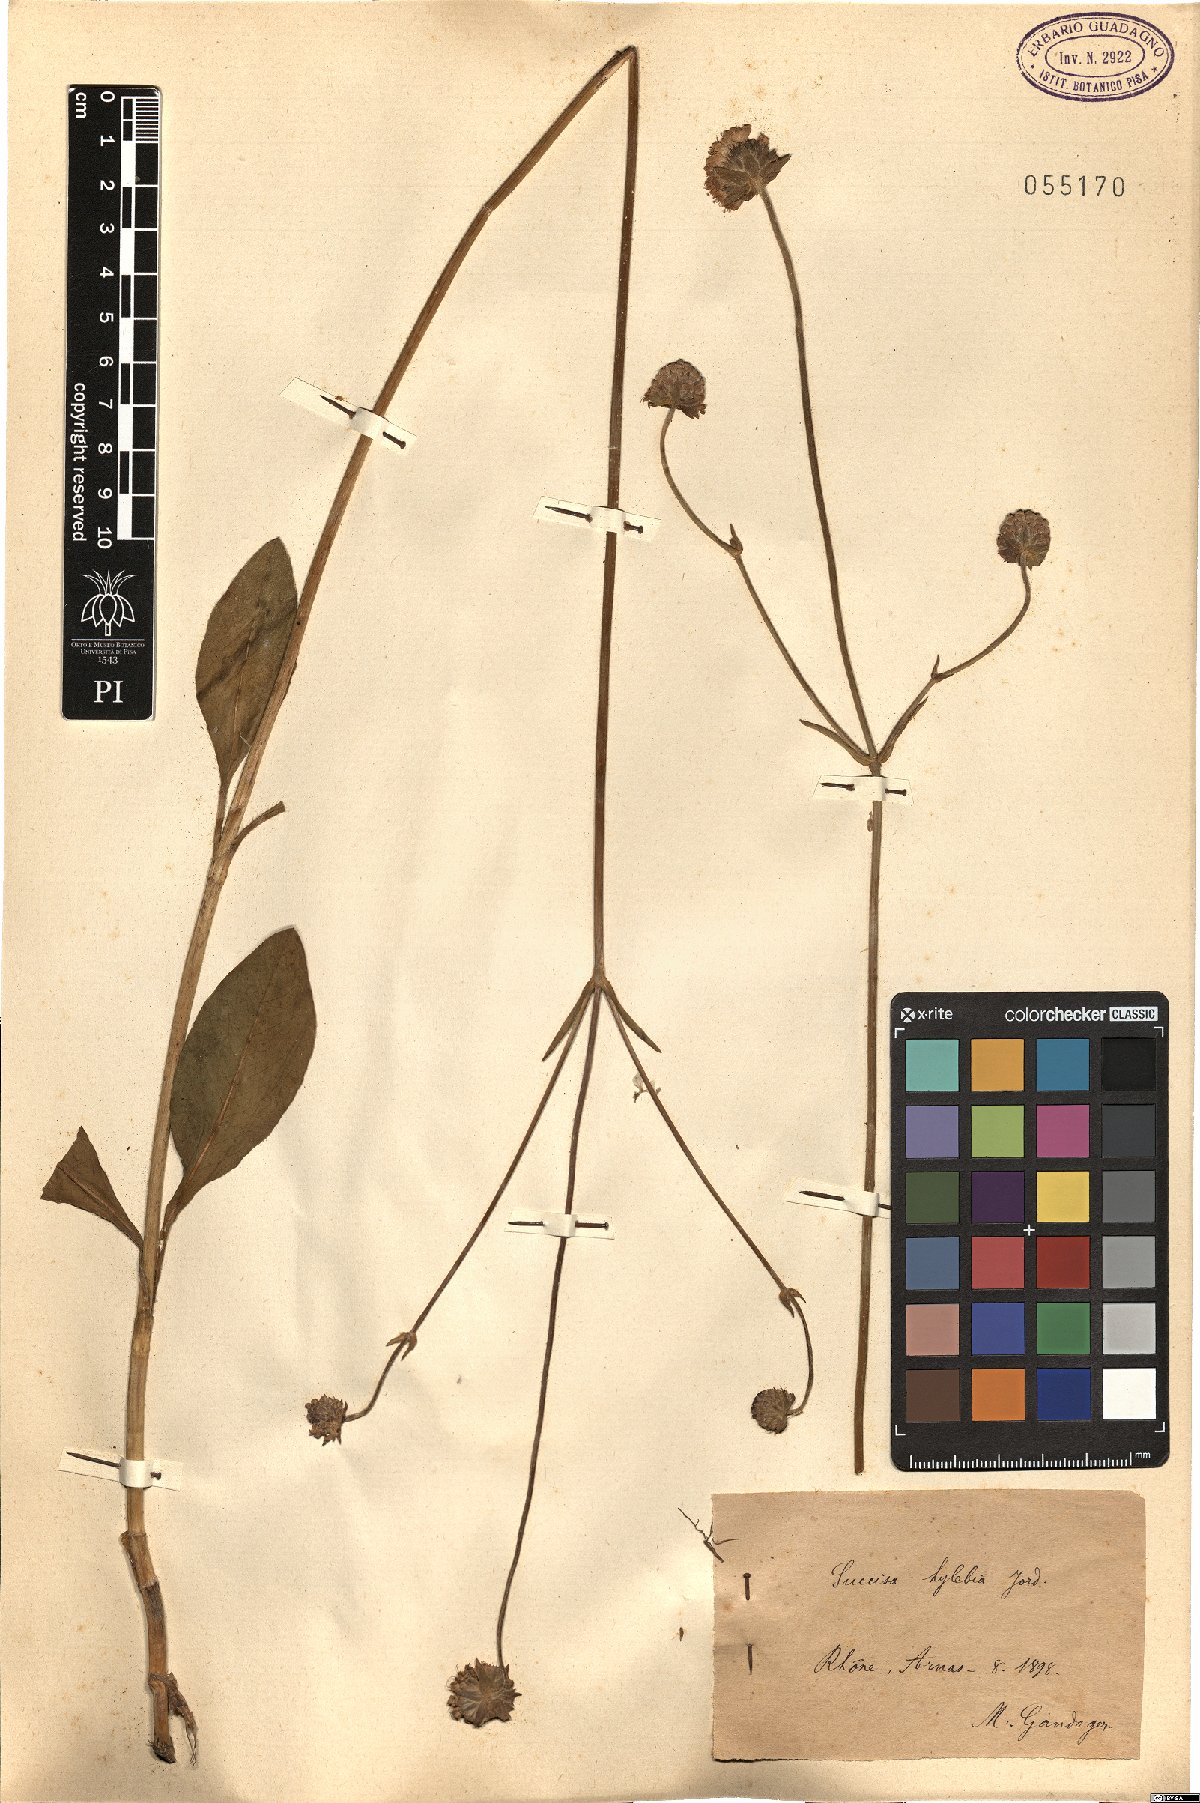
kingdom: Plantae
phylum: Tracheophyta
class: Magnoliopsida
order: Dipsacales
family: Caprifoliaceae
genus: Succisa
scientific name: Succisa
